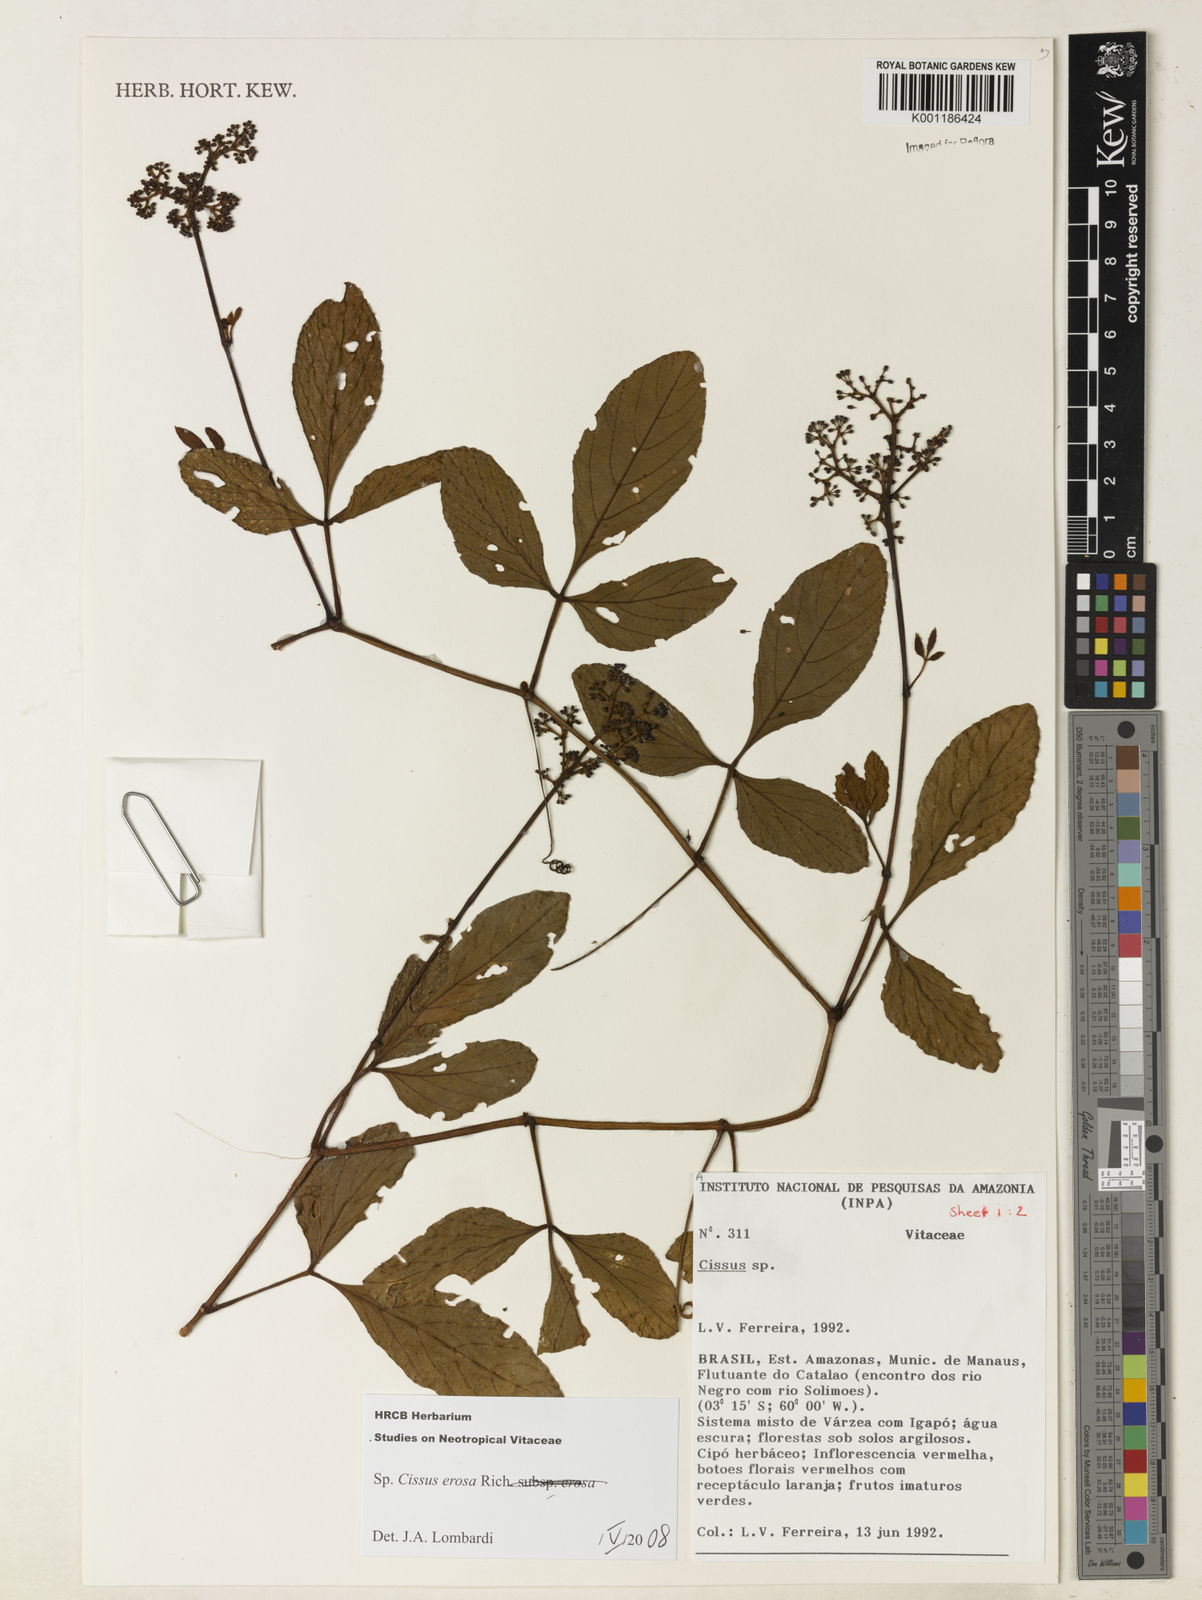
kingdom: Plantae
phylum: Tracheophyta
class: Magnoliopsida
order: Vitales
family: Vitaceae
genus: Cissus
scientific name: Cissus erosa
